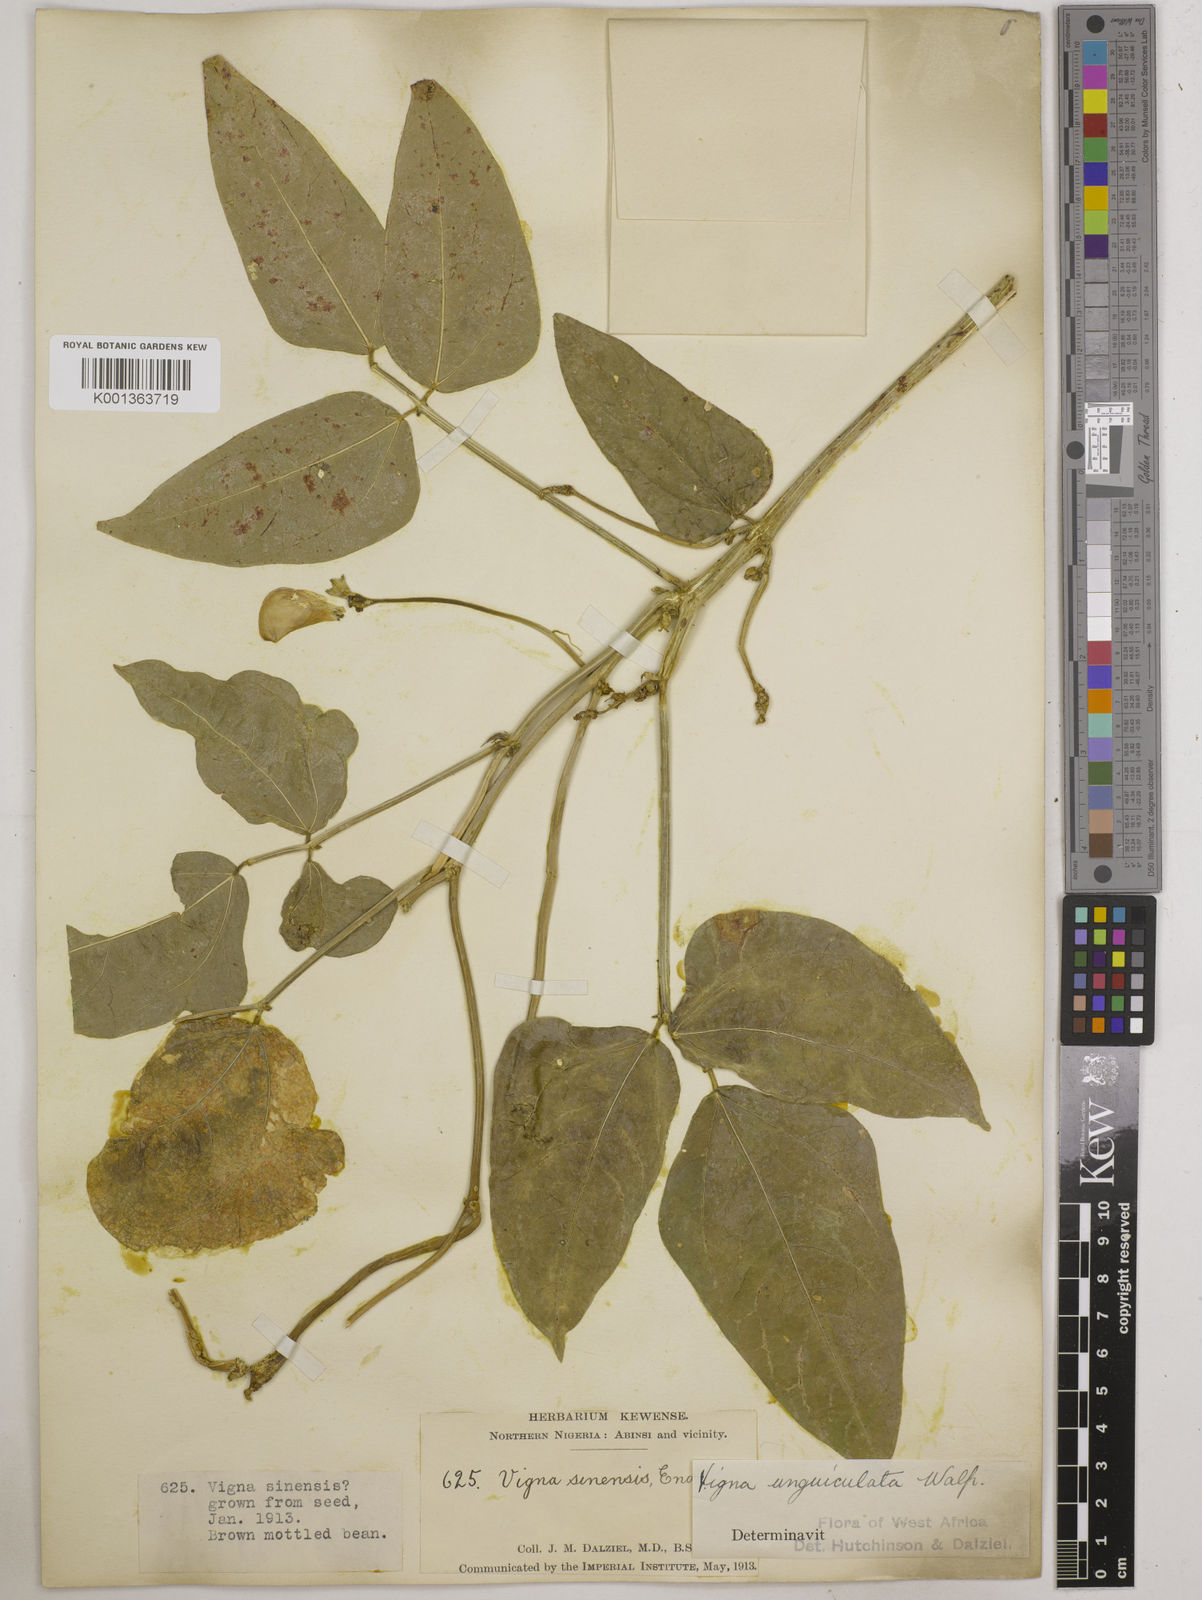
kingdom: Plantae
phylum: Tracheophyta
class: Magnoliopsida
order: Fabales
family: Fabaceae
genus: Vigna
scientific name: Vigna unguiculata
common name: Cowpea
